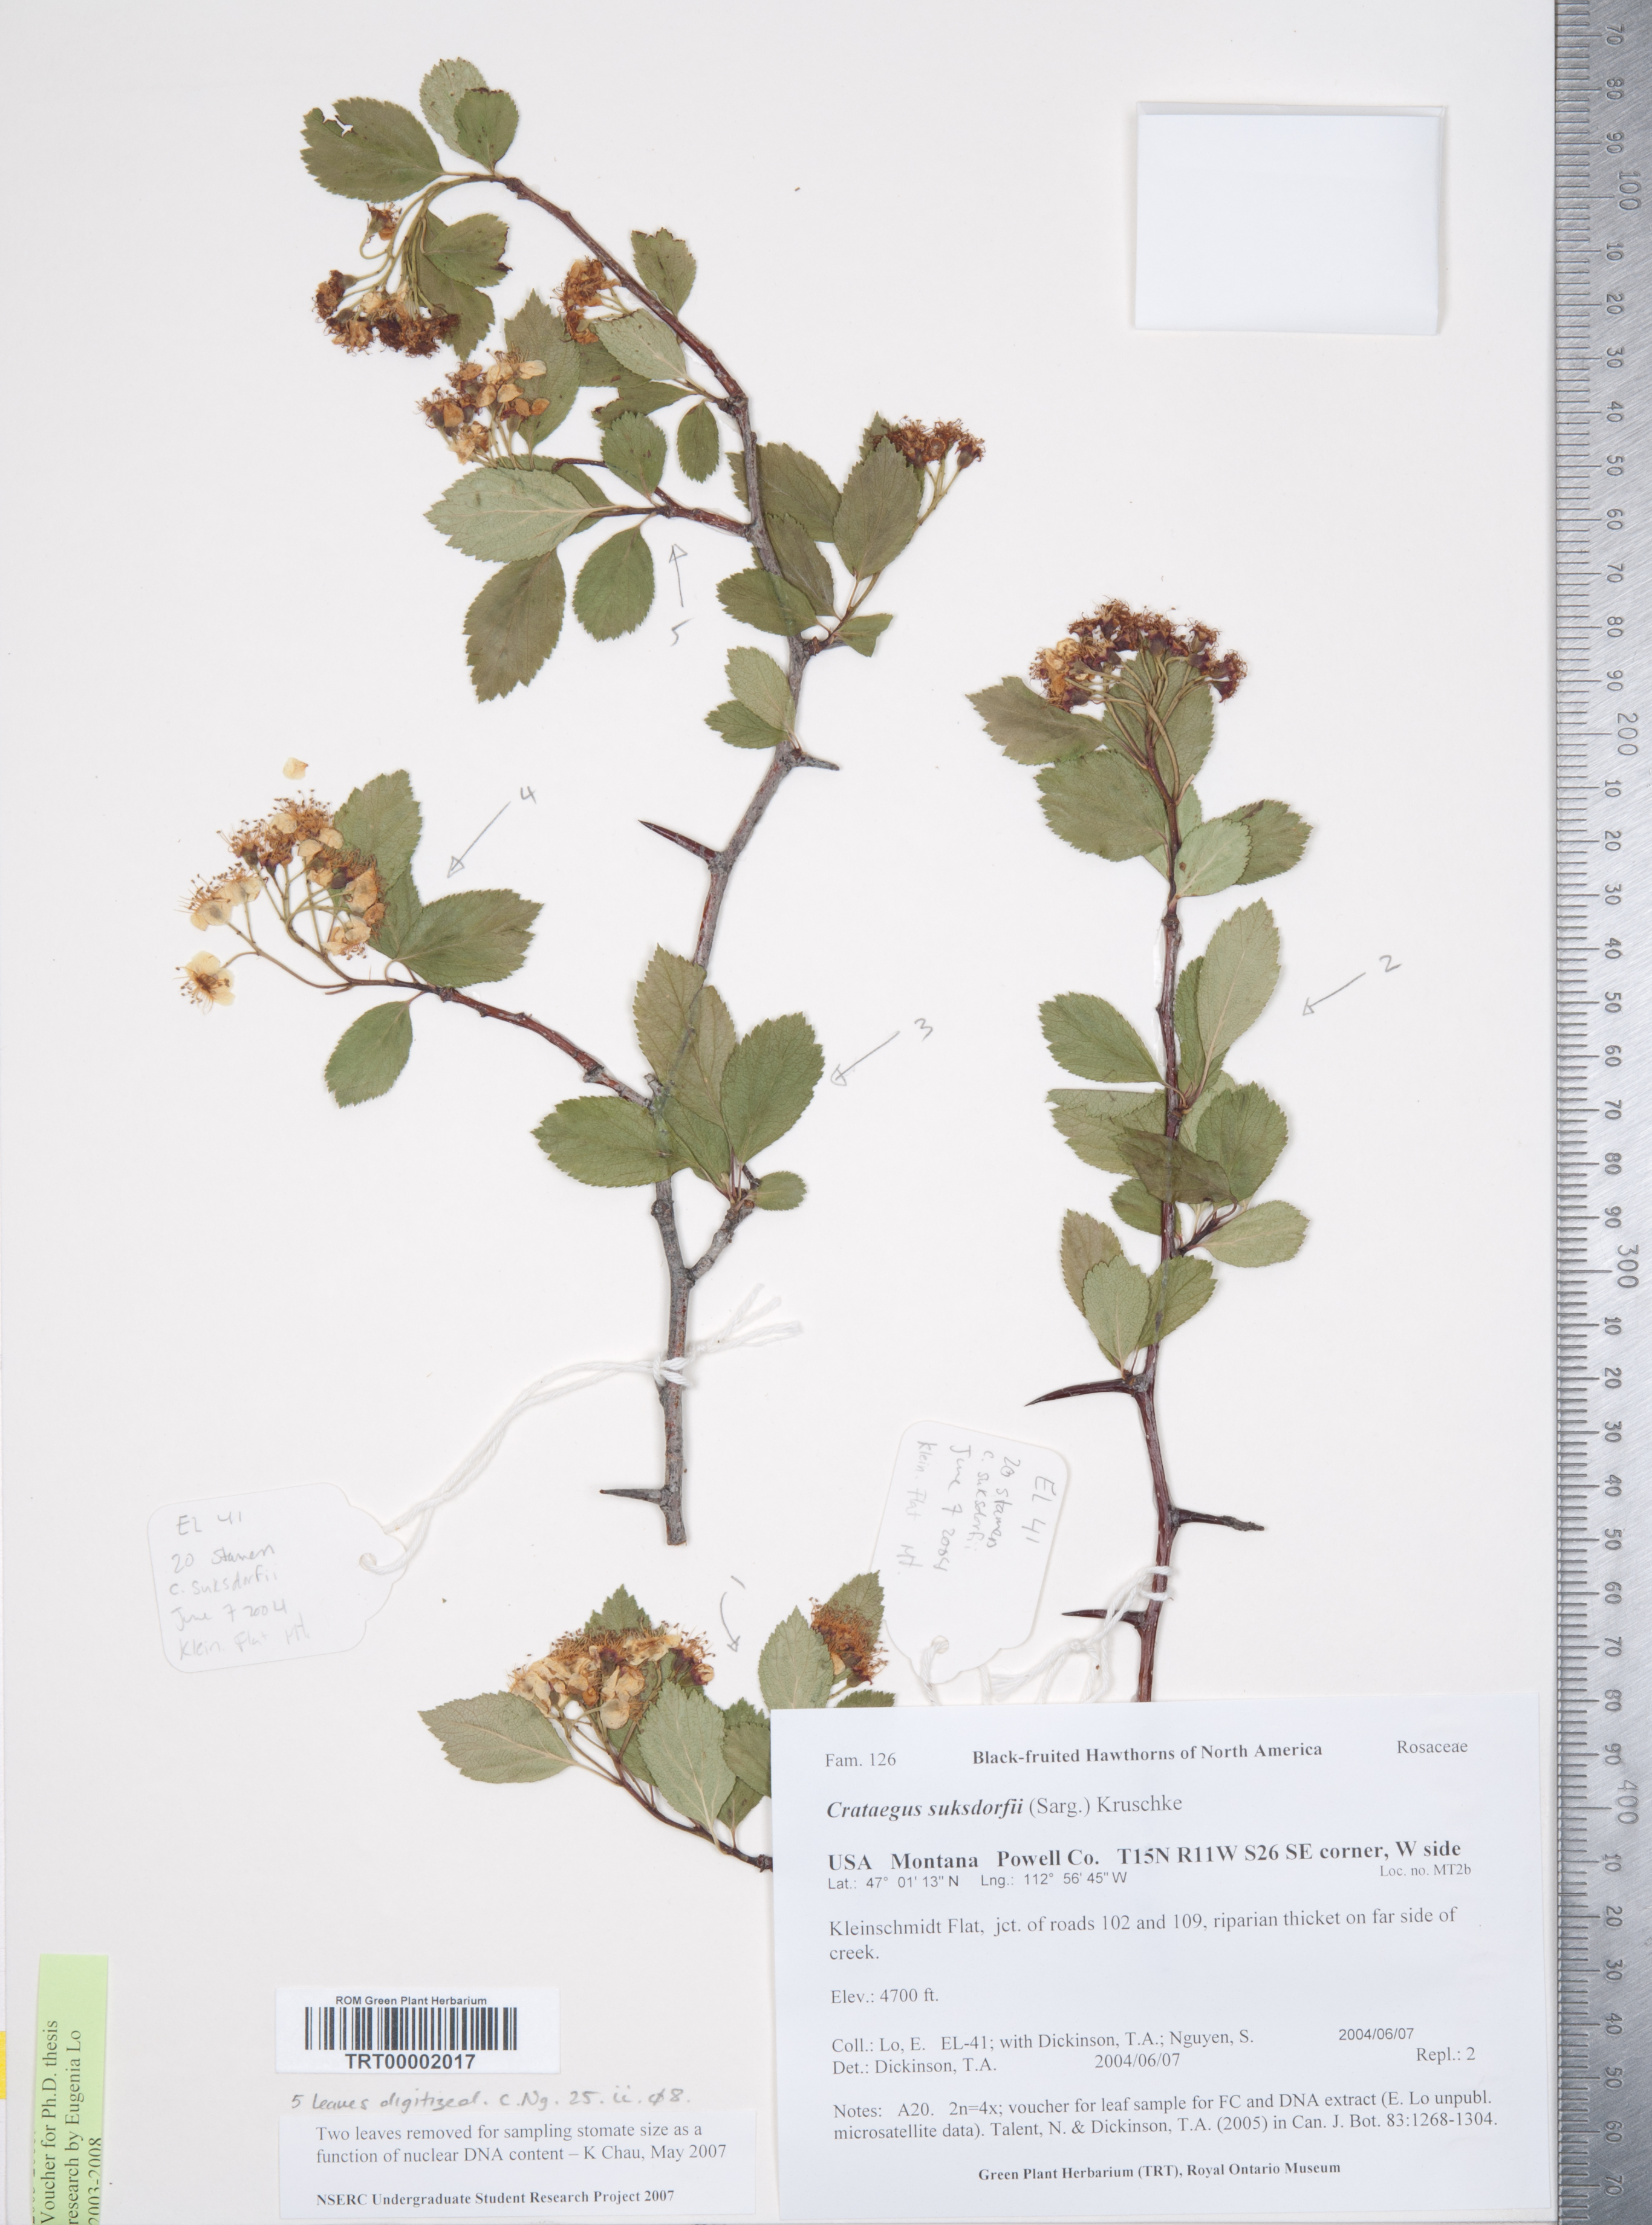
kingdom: Plantae
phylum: Tracheophyta
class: Magnoliopsida
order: Rosales
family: Rosaceae
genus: Crataegus
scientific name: Crataegus gaylussacia
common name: Huckleberry hawthorn
